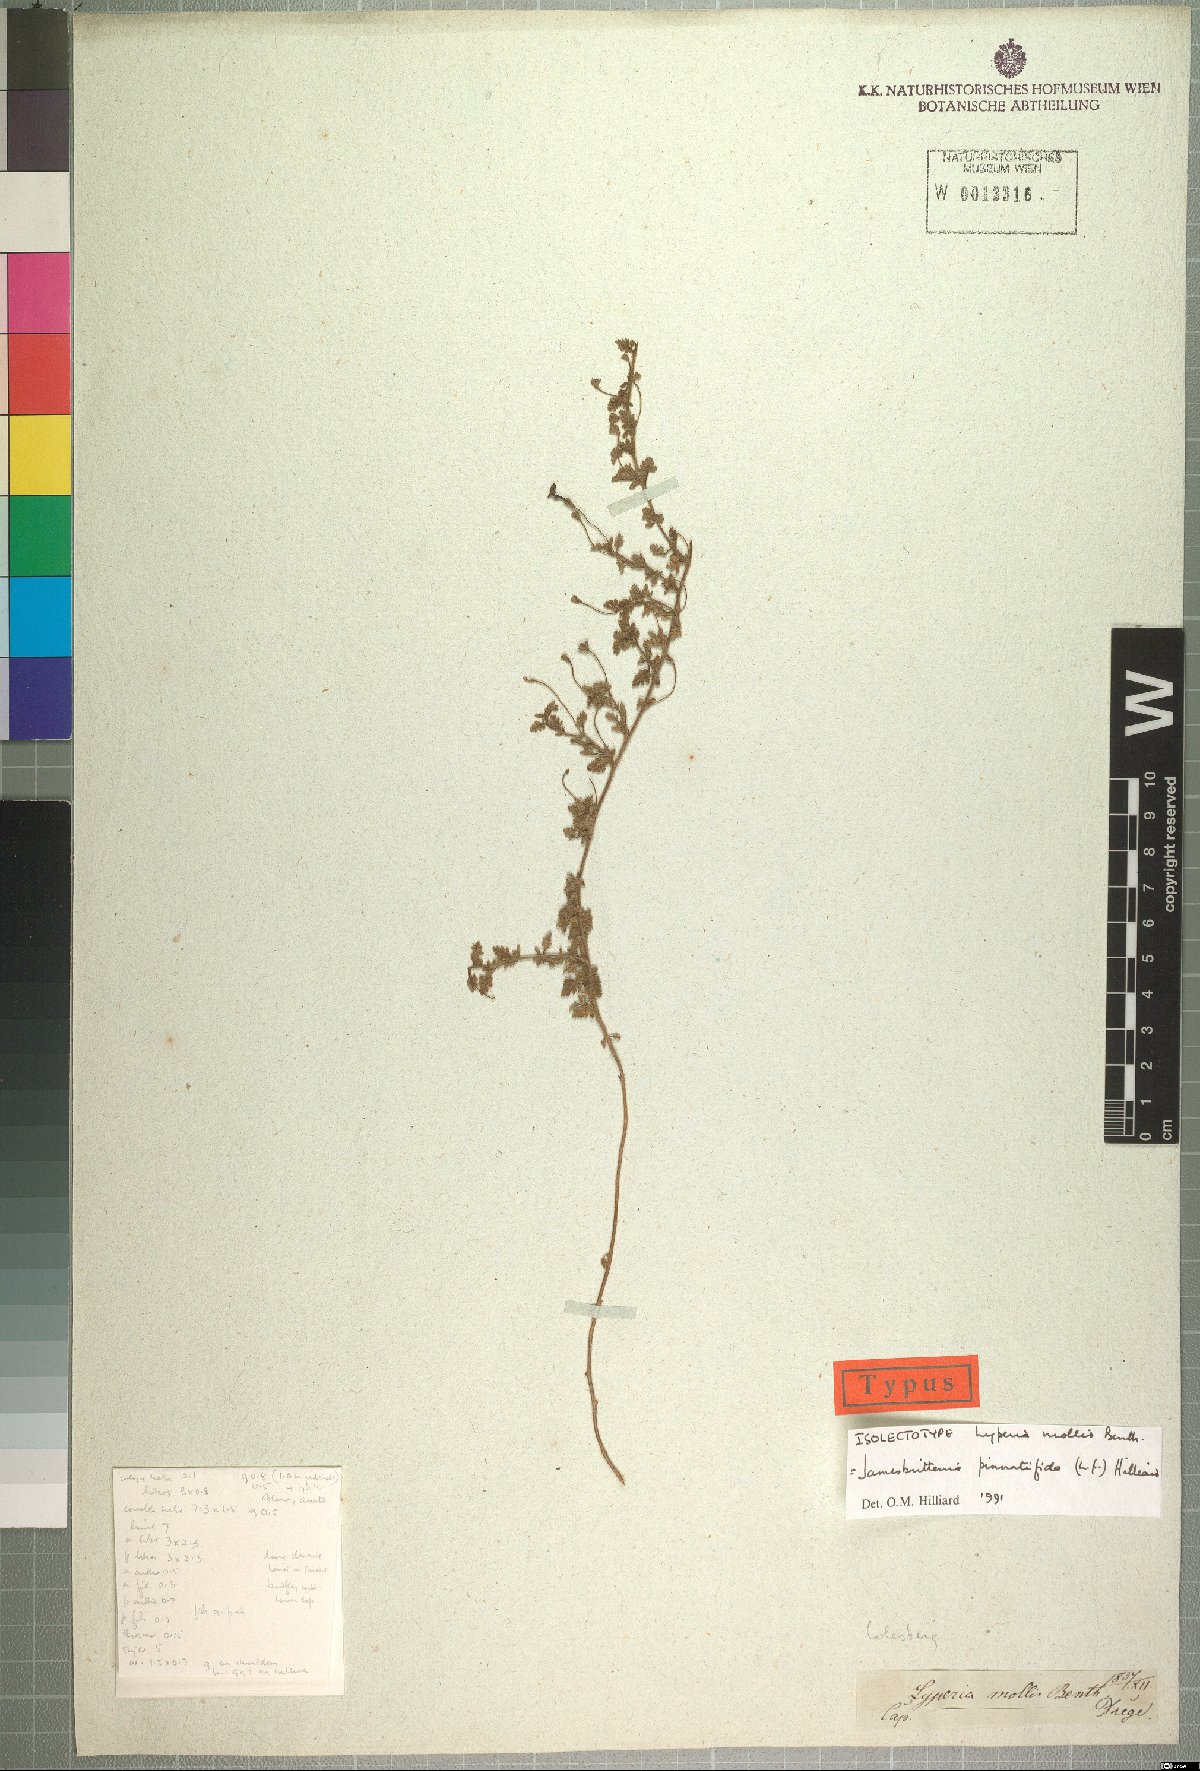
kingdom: Plantae
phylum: Tracheophyta
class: Magnoliopsida
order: Lamiales
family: Scrophulariaceae
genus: Jamesbrittenia
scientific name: Jamesbrittenia pinnatifida
